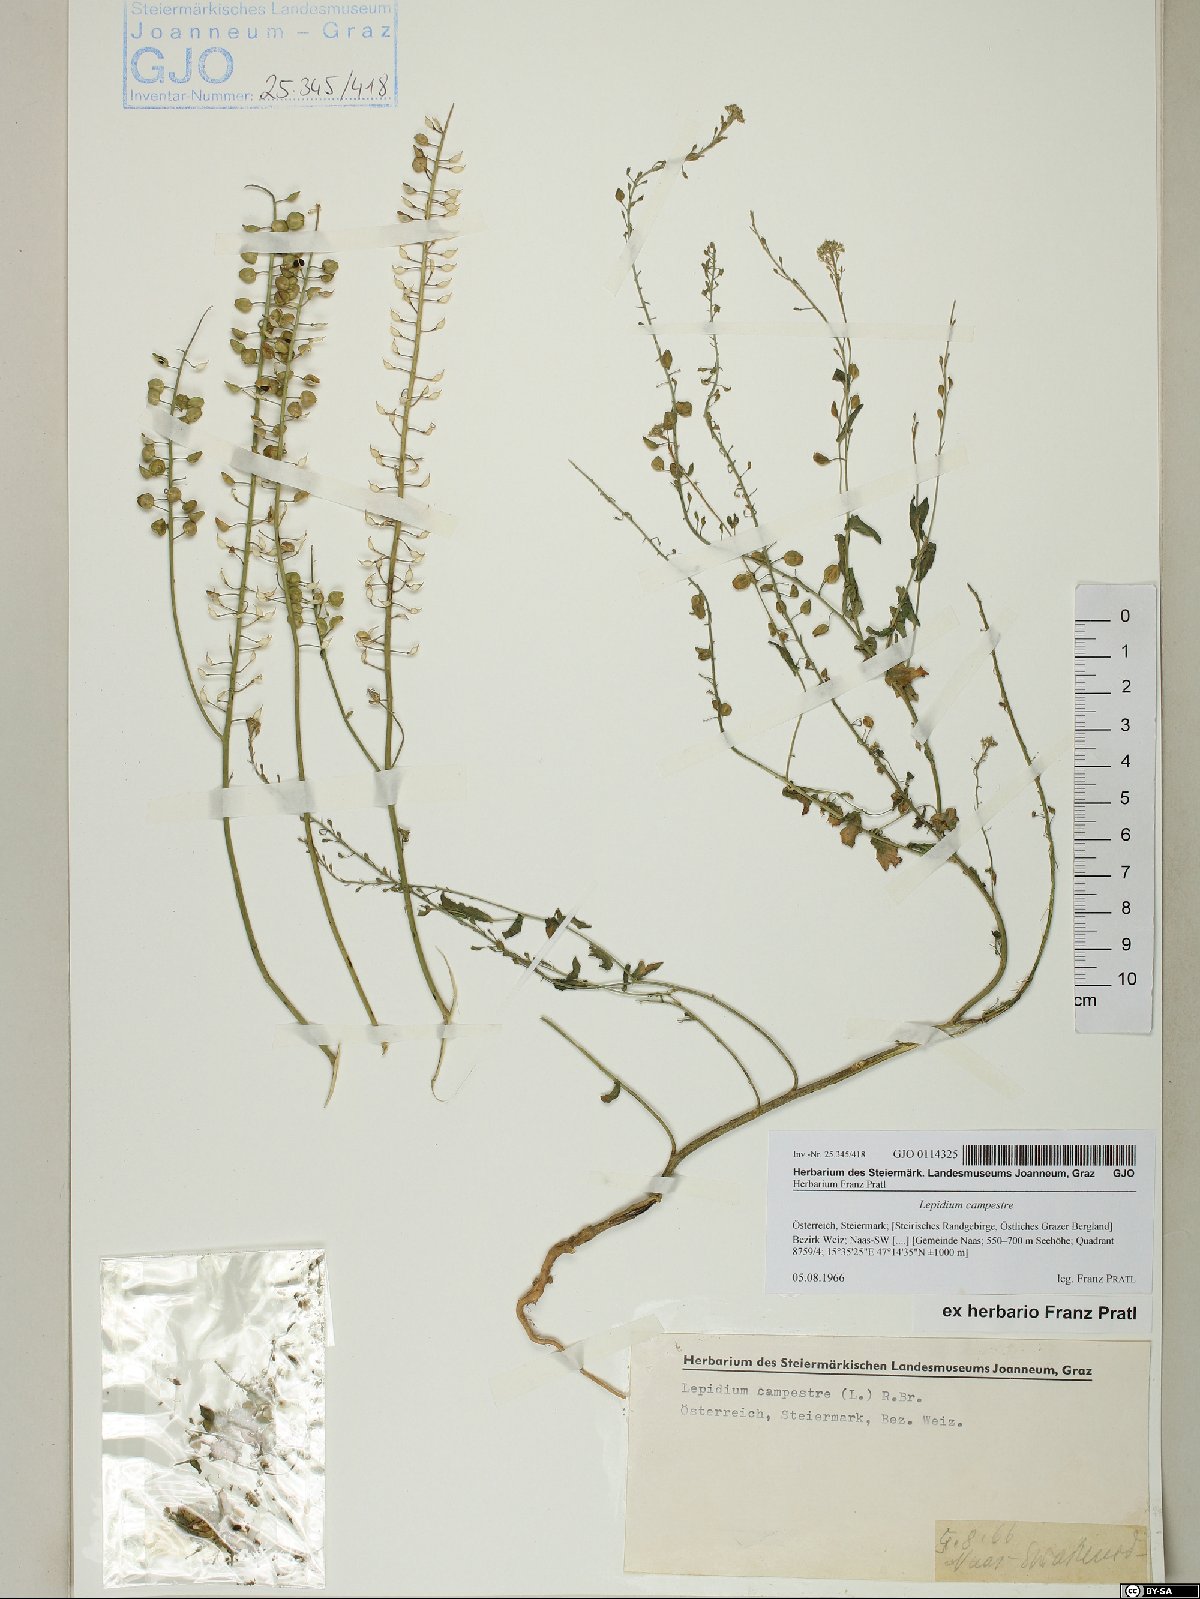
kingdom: Plantae
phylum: Tracheophyta
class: Magnoliopsida
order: Brassicales
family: Brassicaceae
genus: Lepidium
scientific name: Lepidium campestre
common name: Field pepperwort
